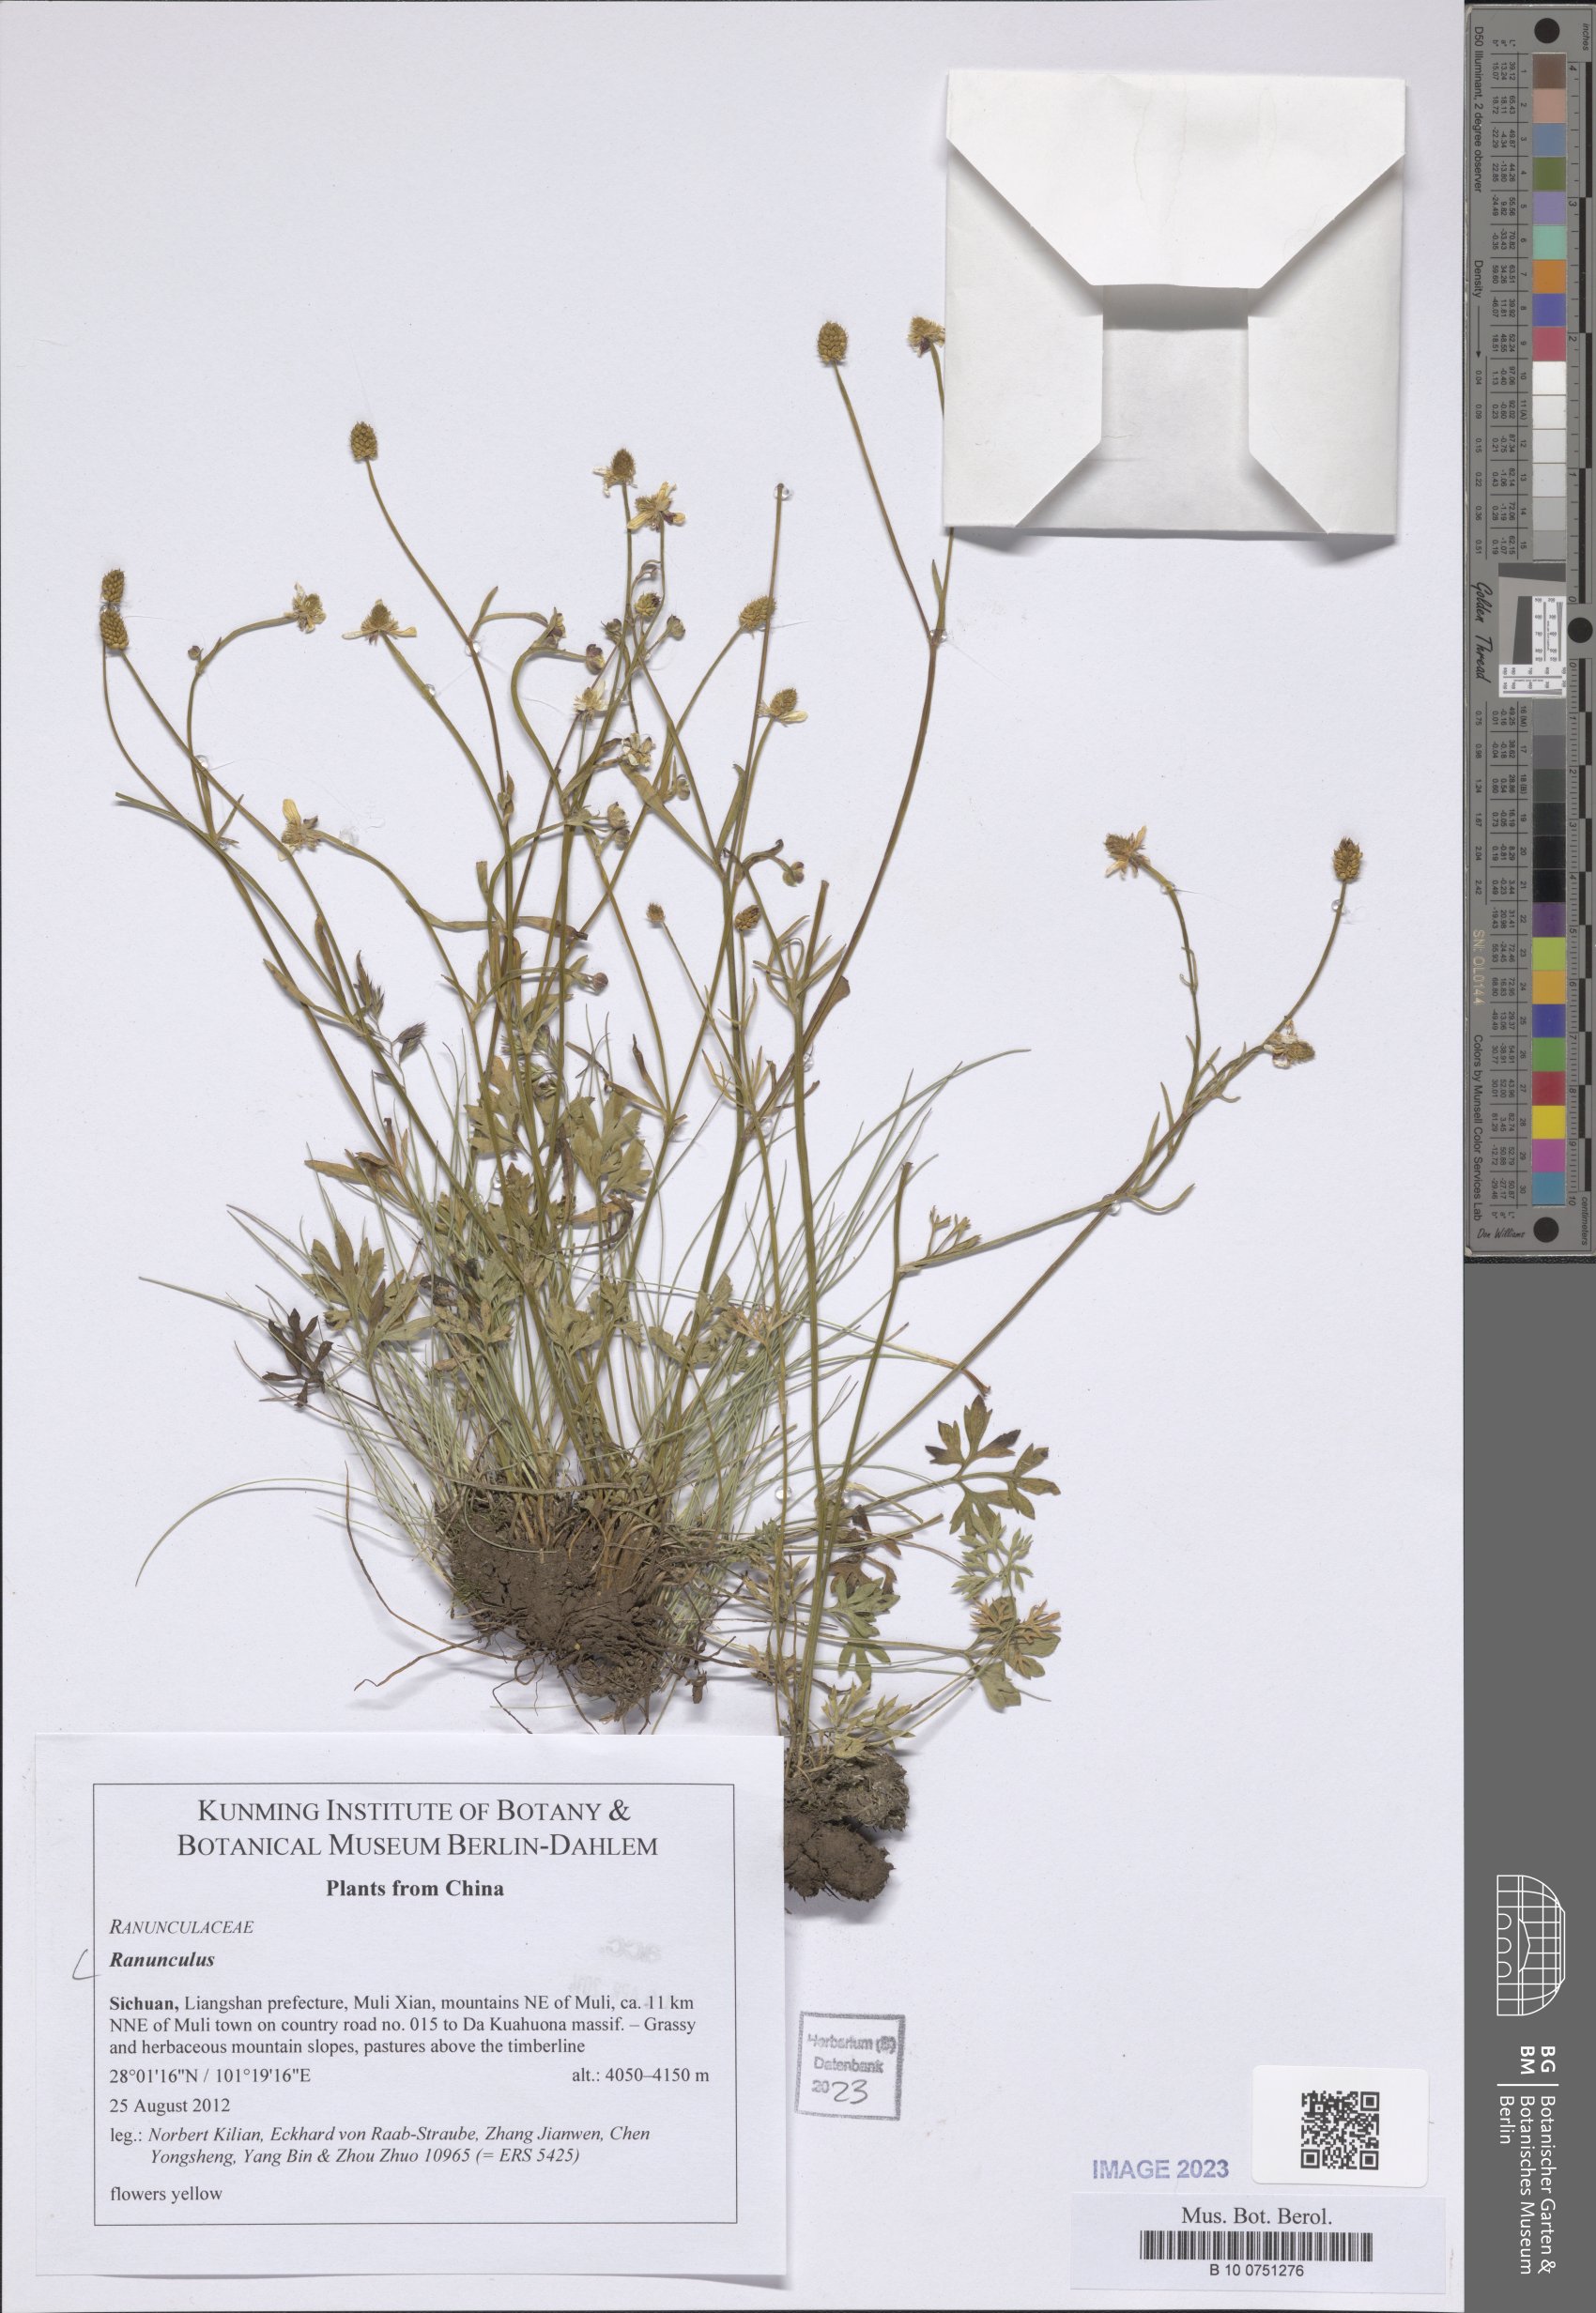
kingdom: Plantae
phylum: Tracheophyta
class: Magnoliopsida
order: Ranunculales
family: Ranunculaceae
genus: Ranunculus
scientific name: Ranunculus
